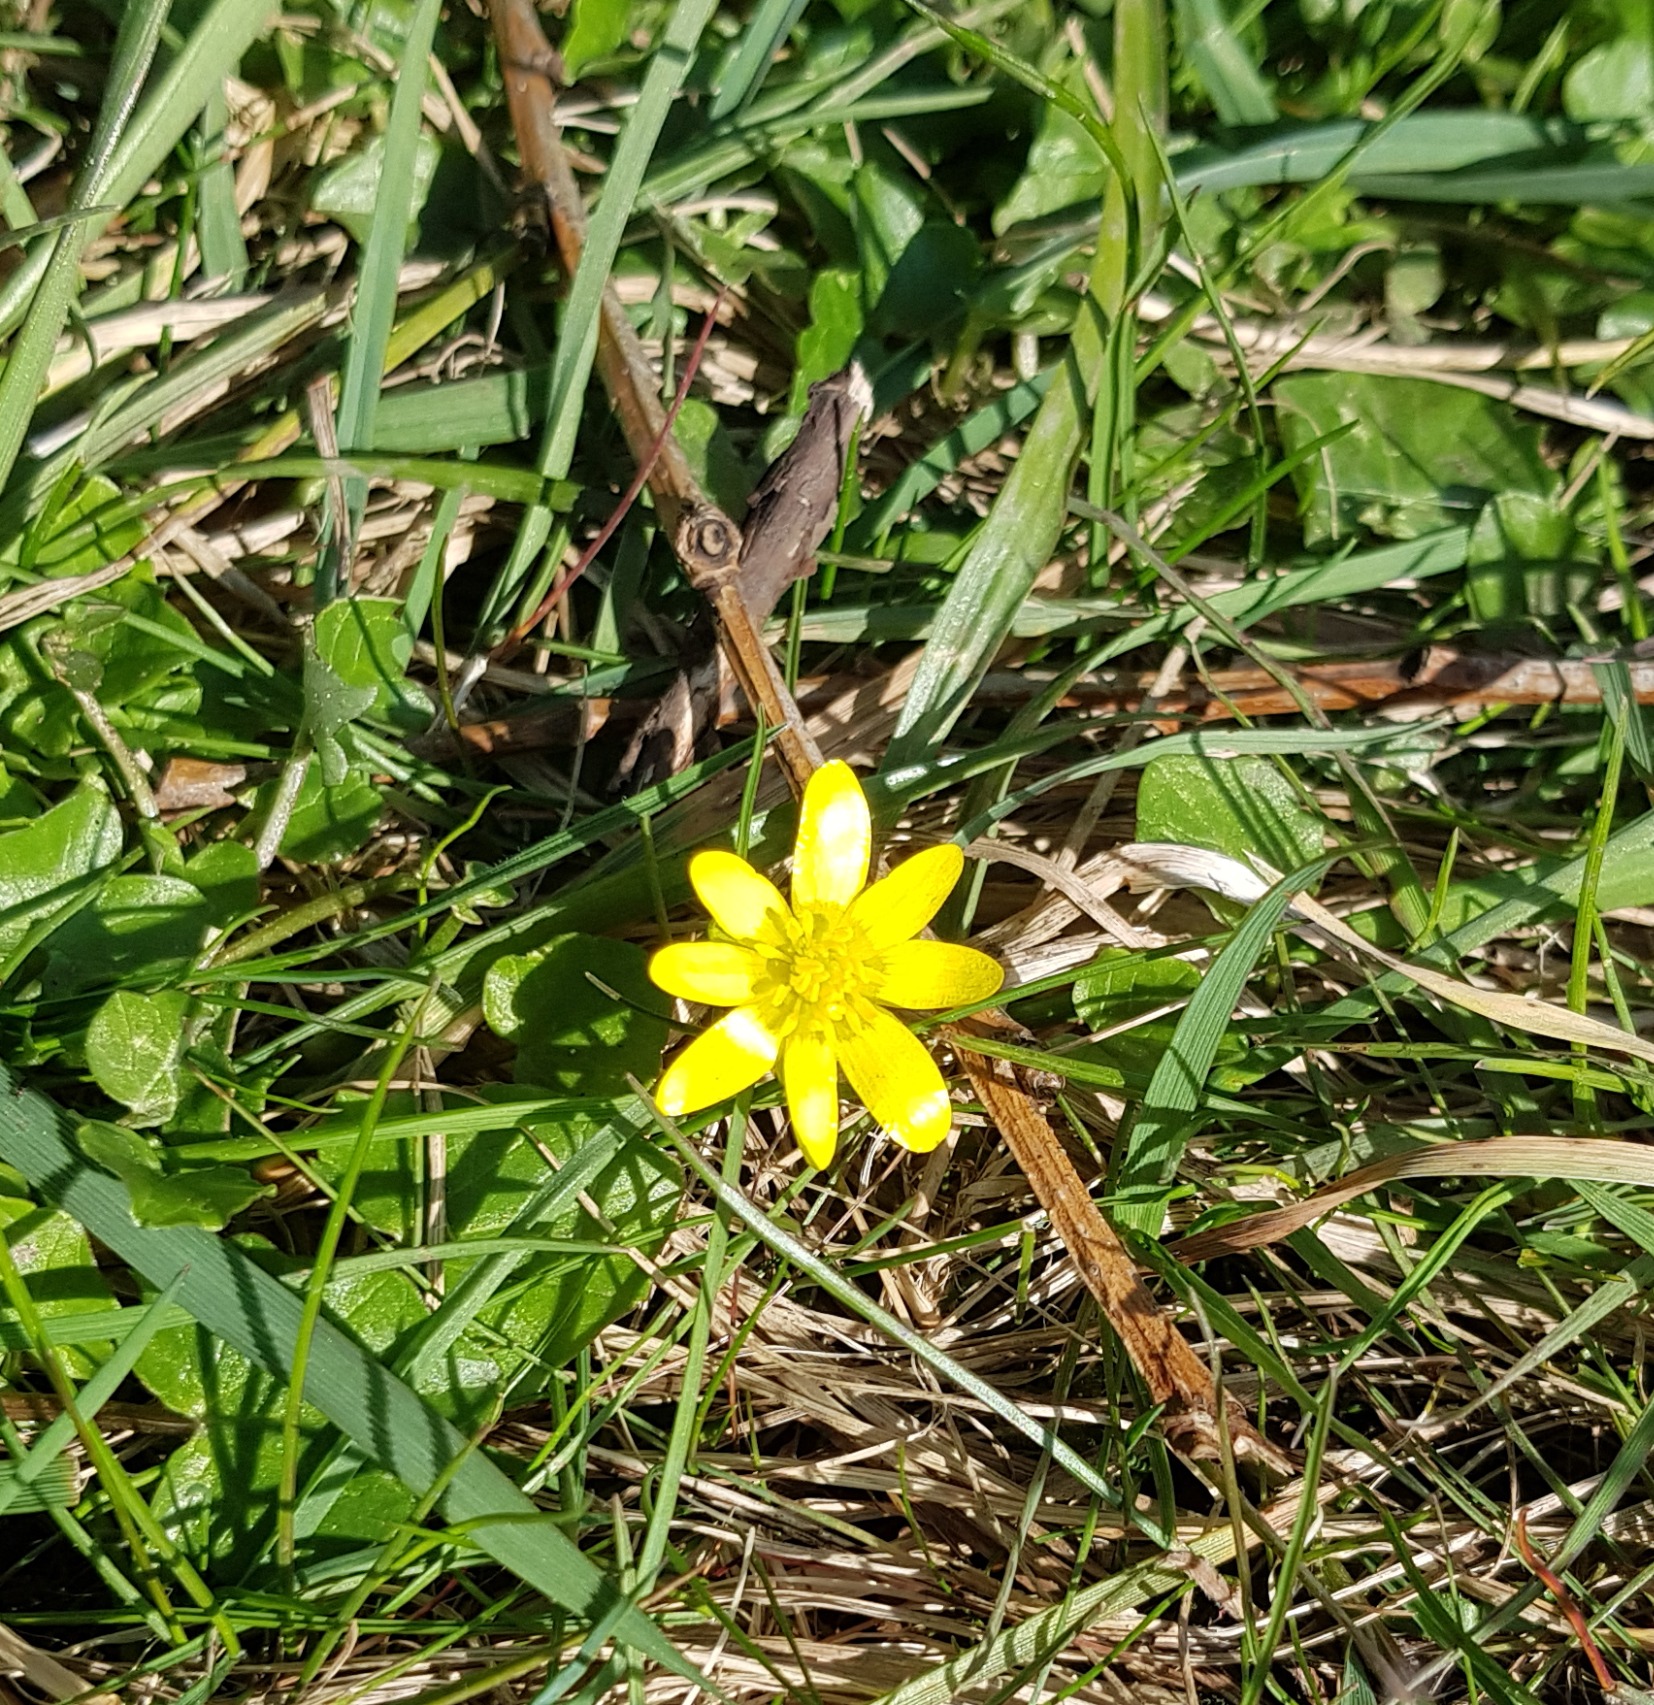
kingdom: Plantae
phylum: Tracheophyta
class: Magnoliopsida
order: Ranunculales
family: Ranunculaceae
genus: Ficaria
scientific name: Ficaria verna
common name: Almindelig vorterod
